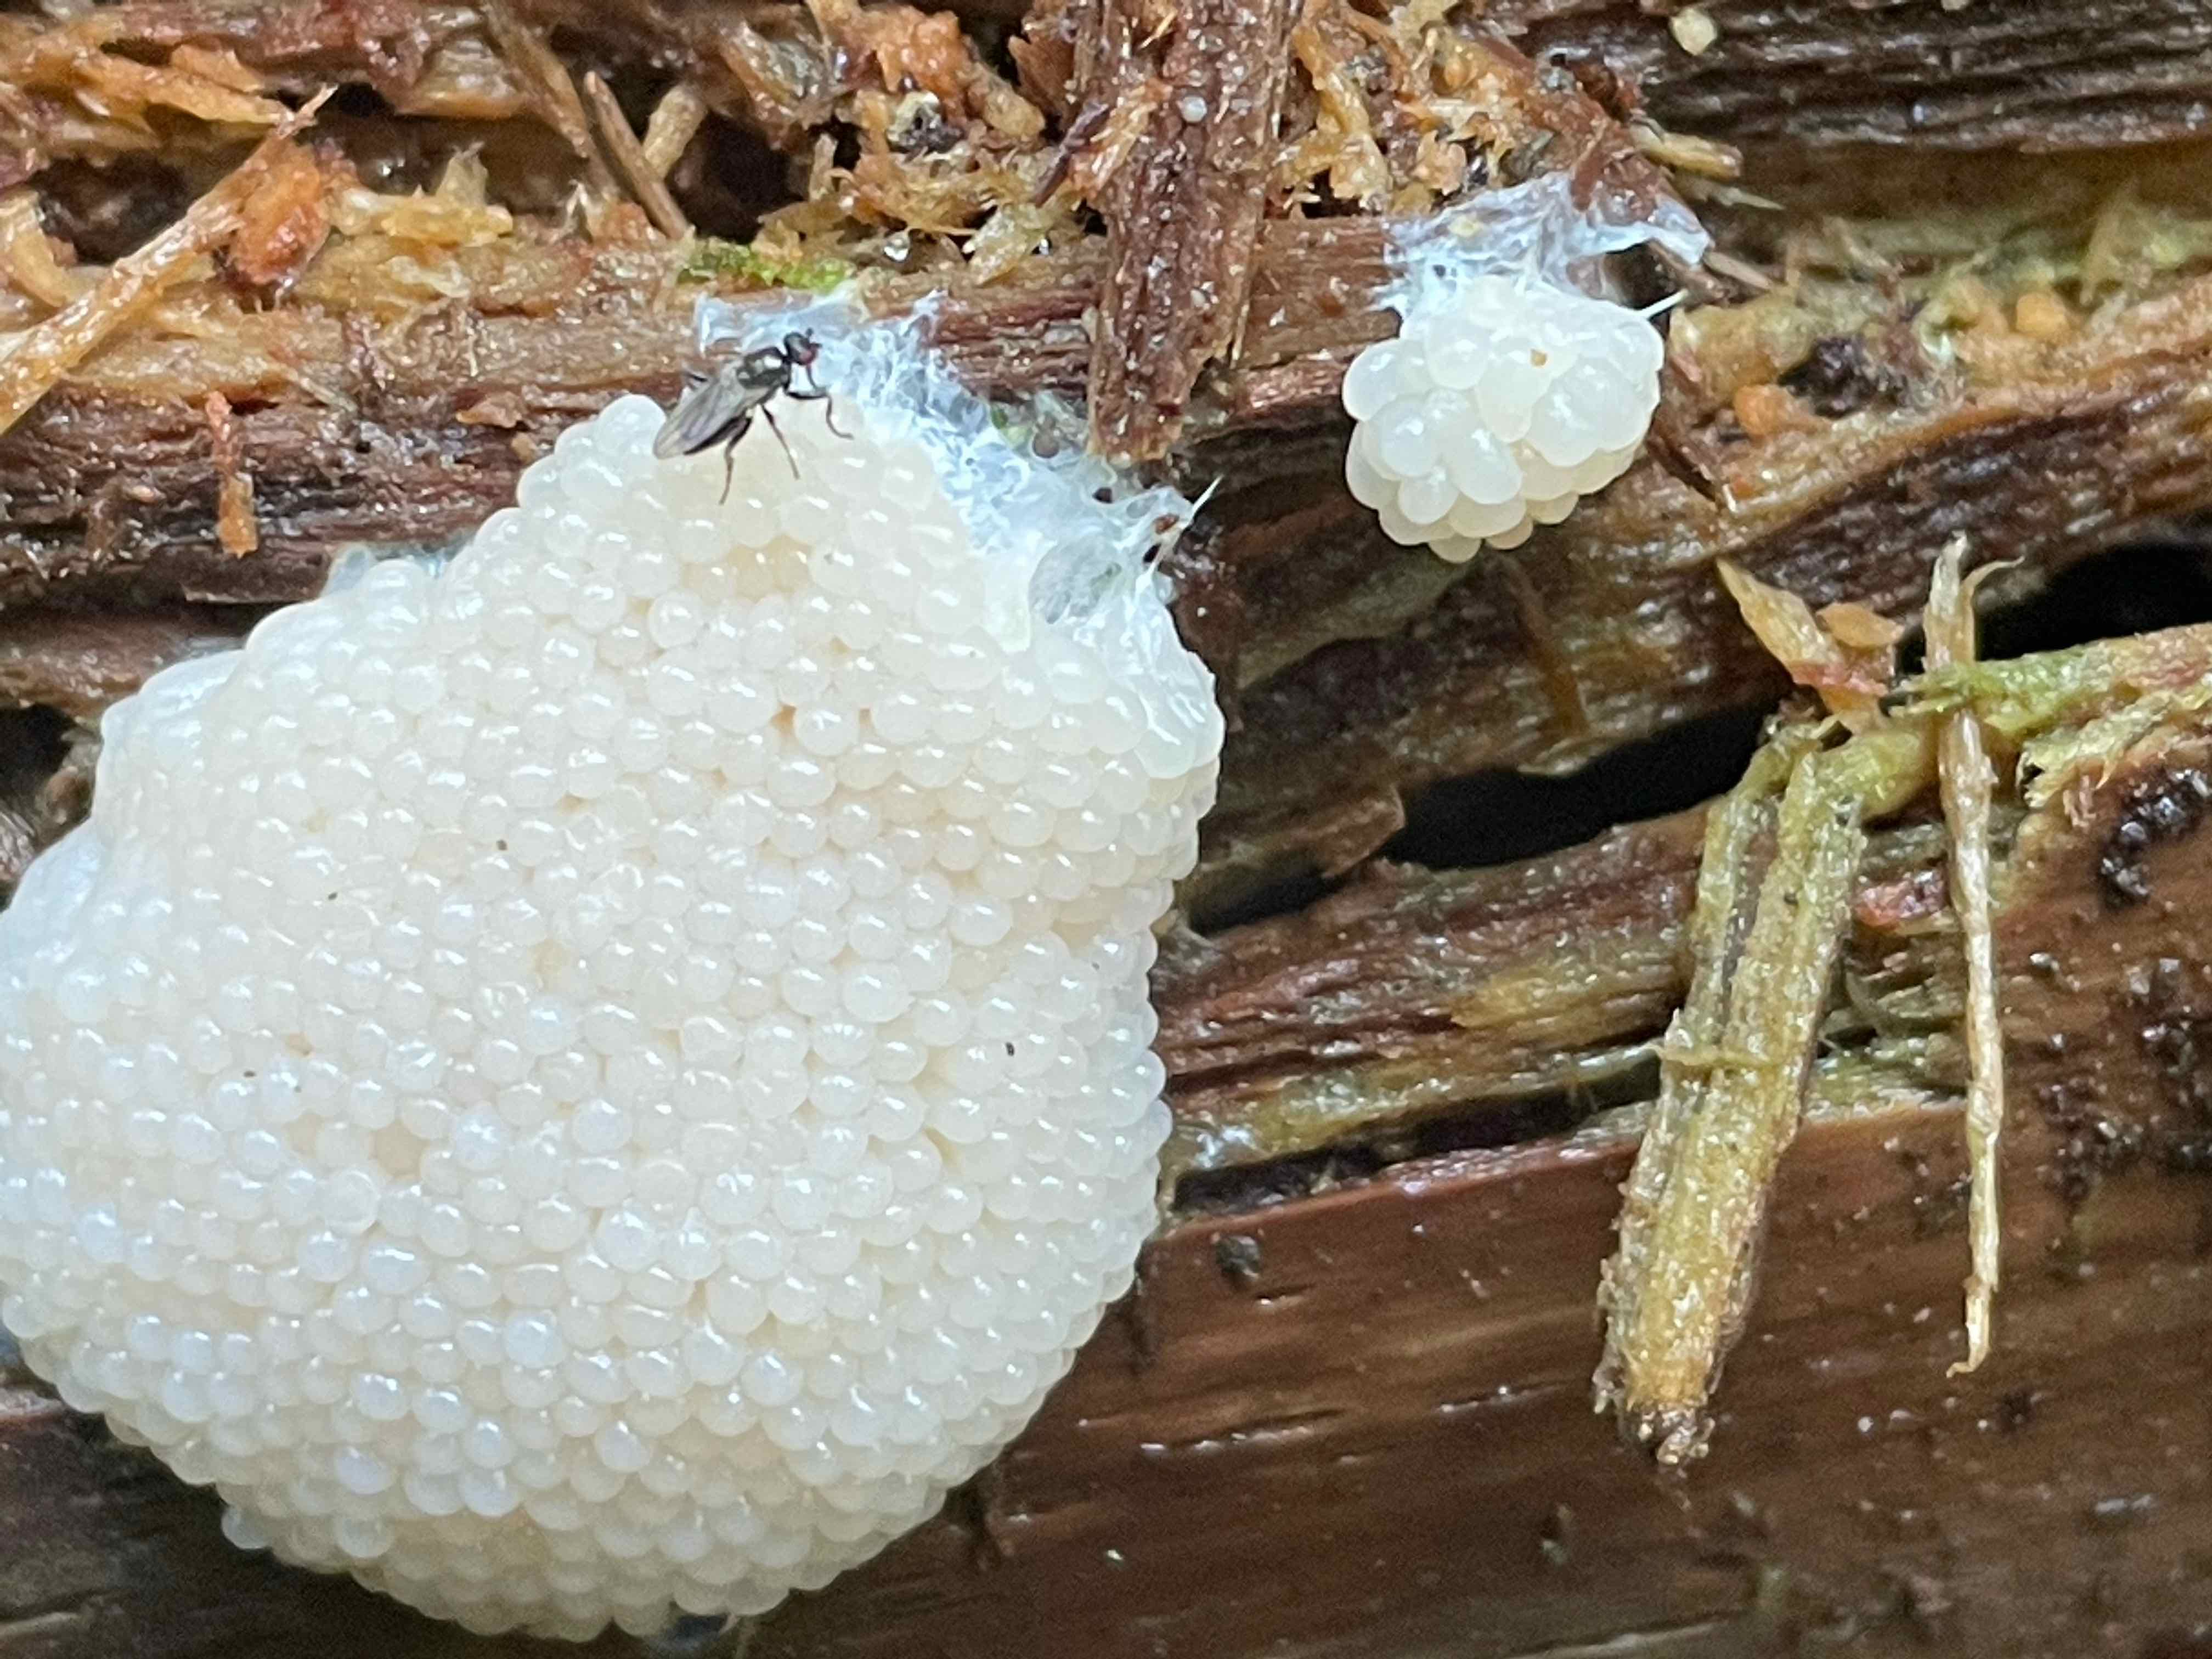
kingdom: Protozoa
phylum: Mycetozoa
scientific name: Mycetozoa
